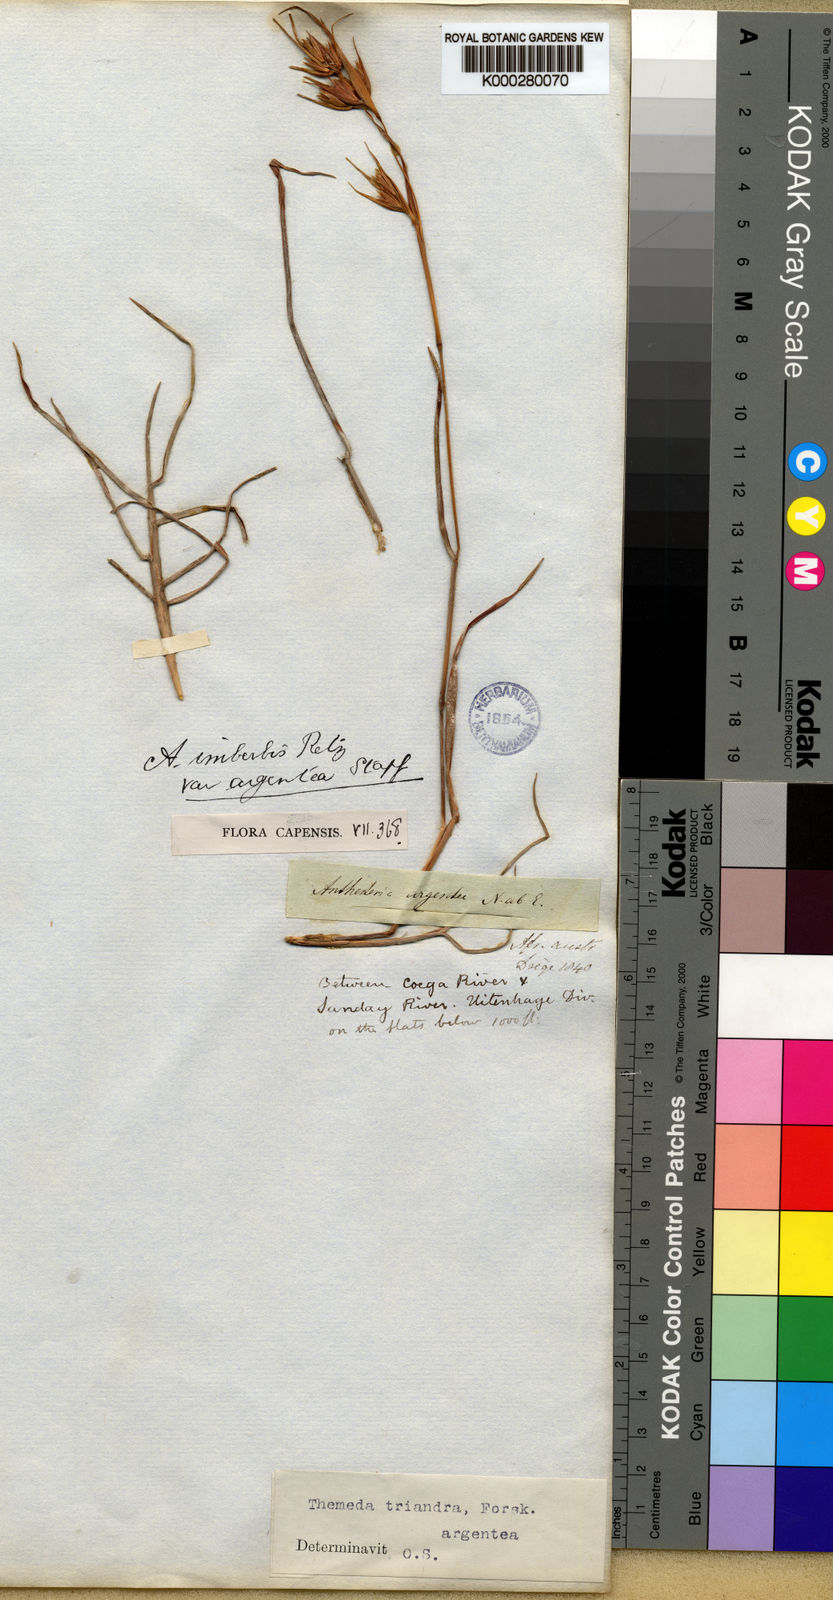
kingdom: Plantae
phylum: Tracheophyta
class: Liliopsida
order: Poales
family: Poaceae
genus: Themeda
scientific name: Themeda triandra
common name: Kangaroo grass
